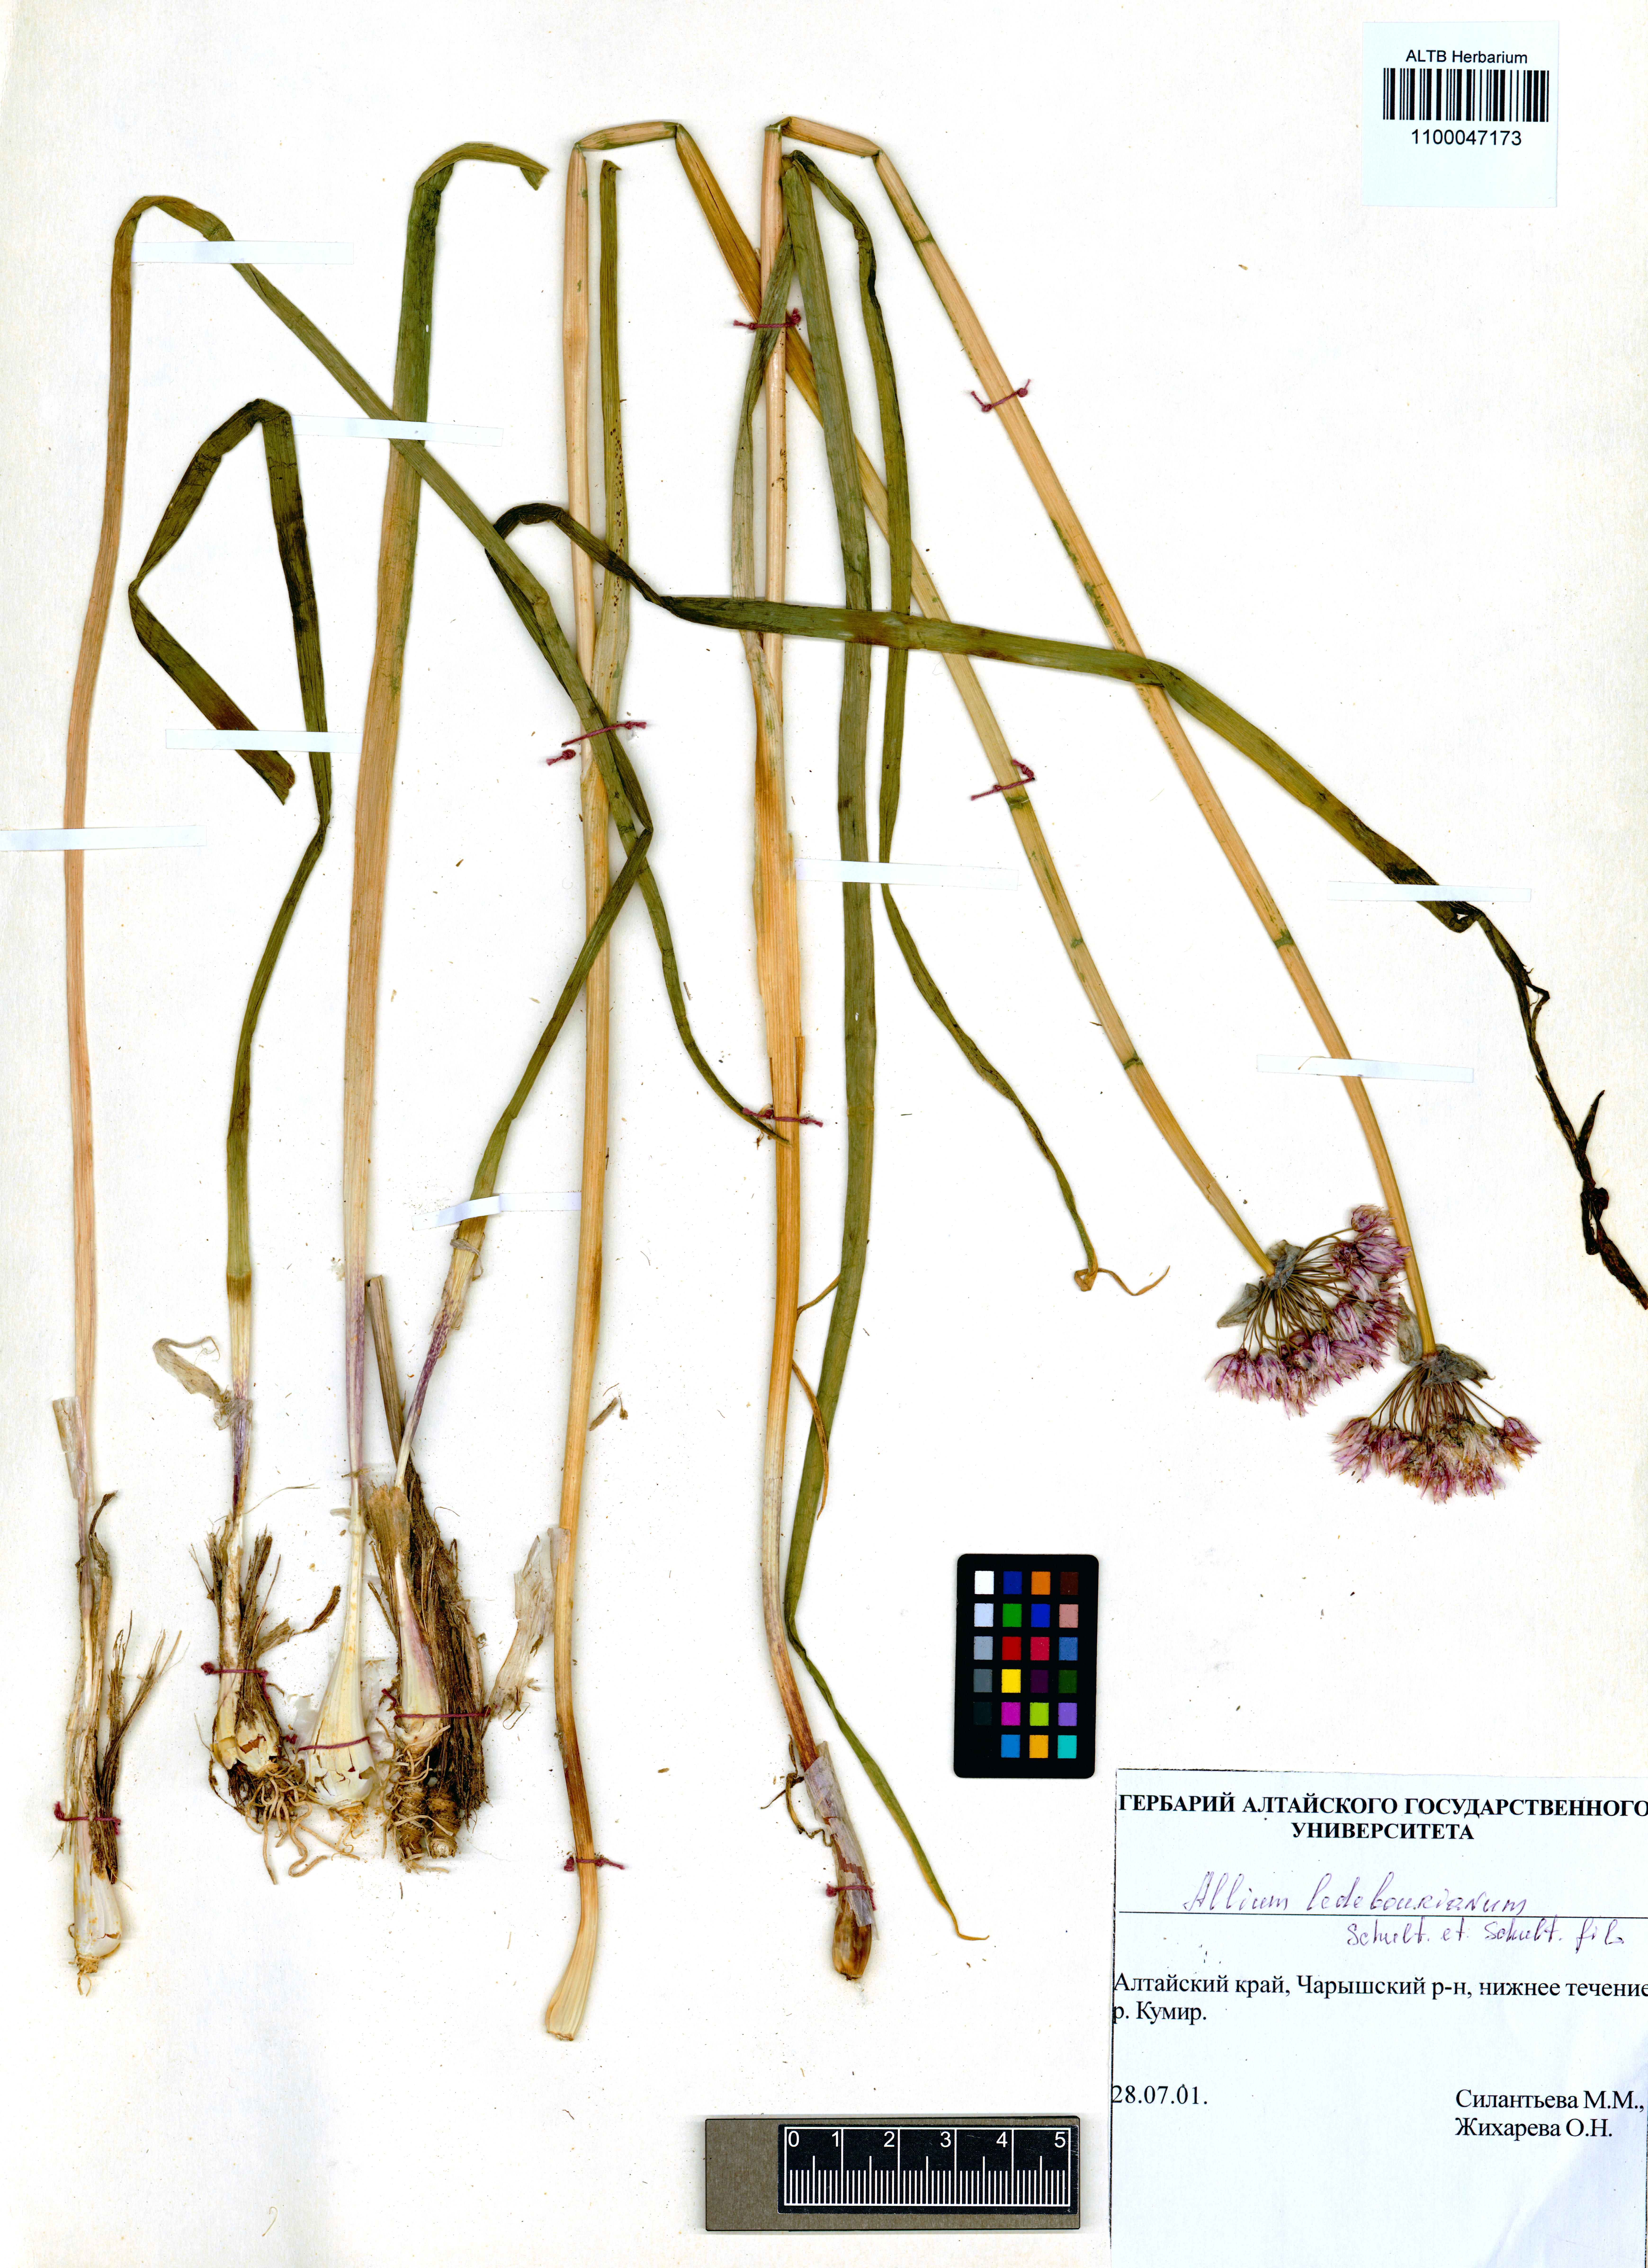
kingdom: Plantae
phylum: Tracheophyta
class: Liliopsida
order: Asparagales
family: Amaryllidaceae
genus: Allium
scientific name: Allium ledebourianum
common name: Ledebour chive
